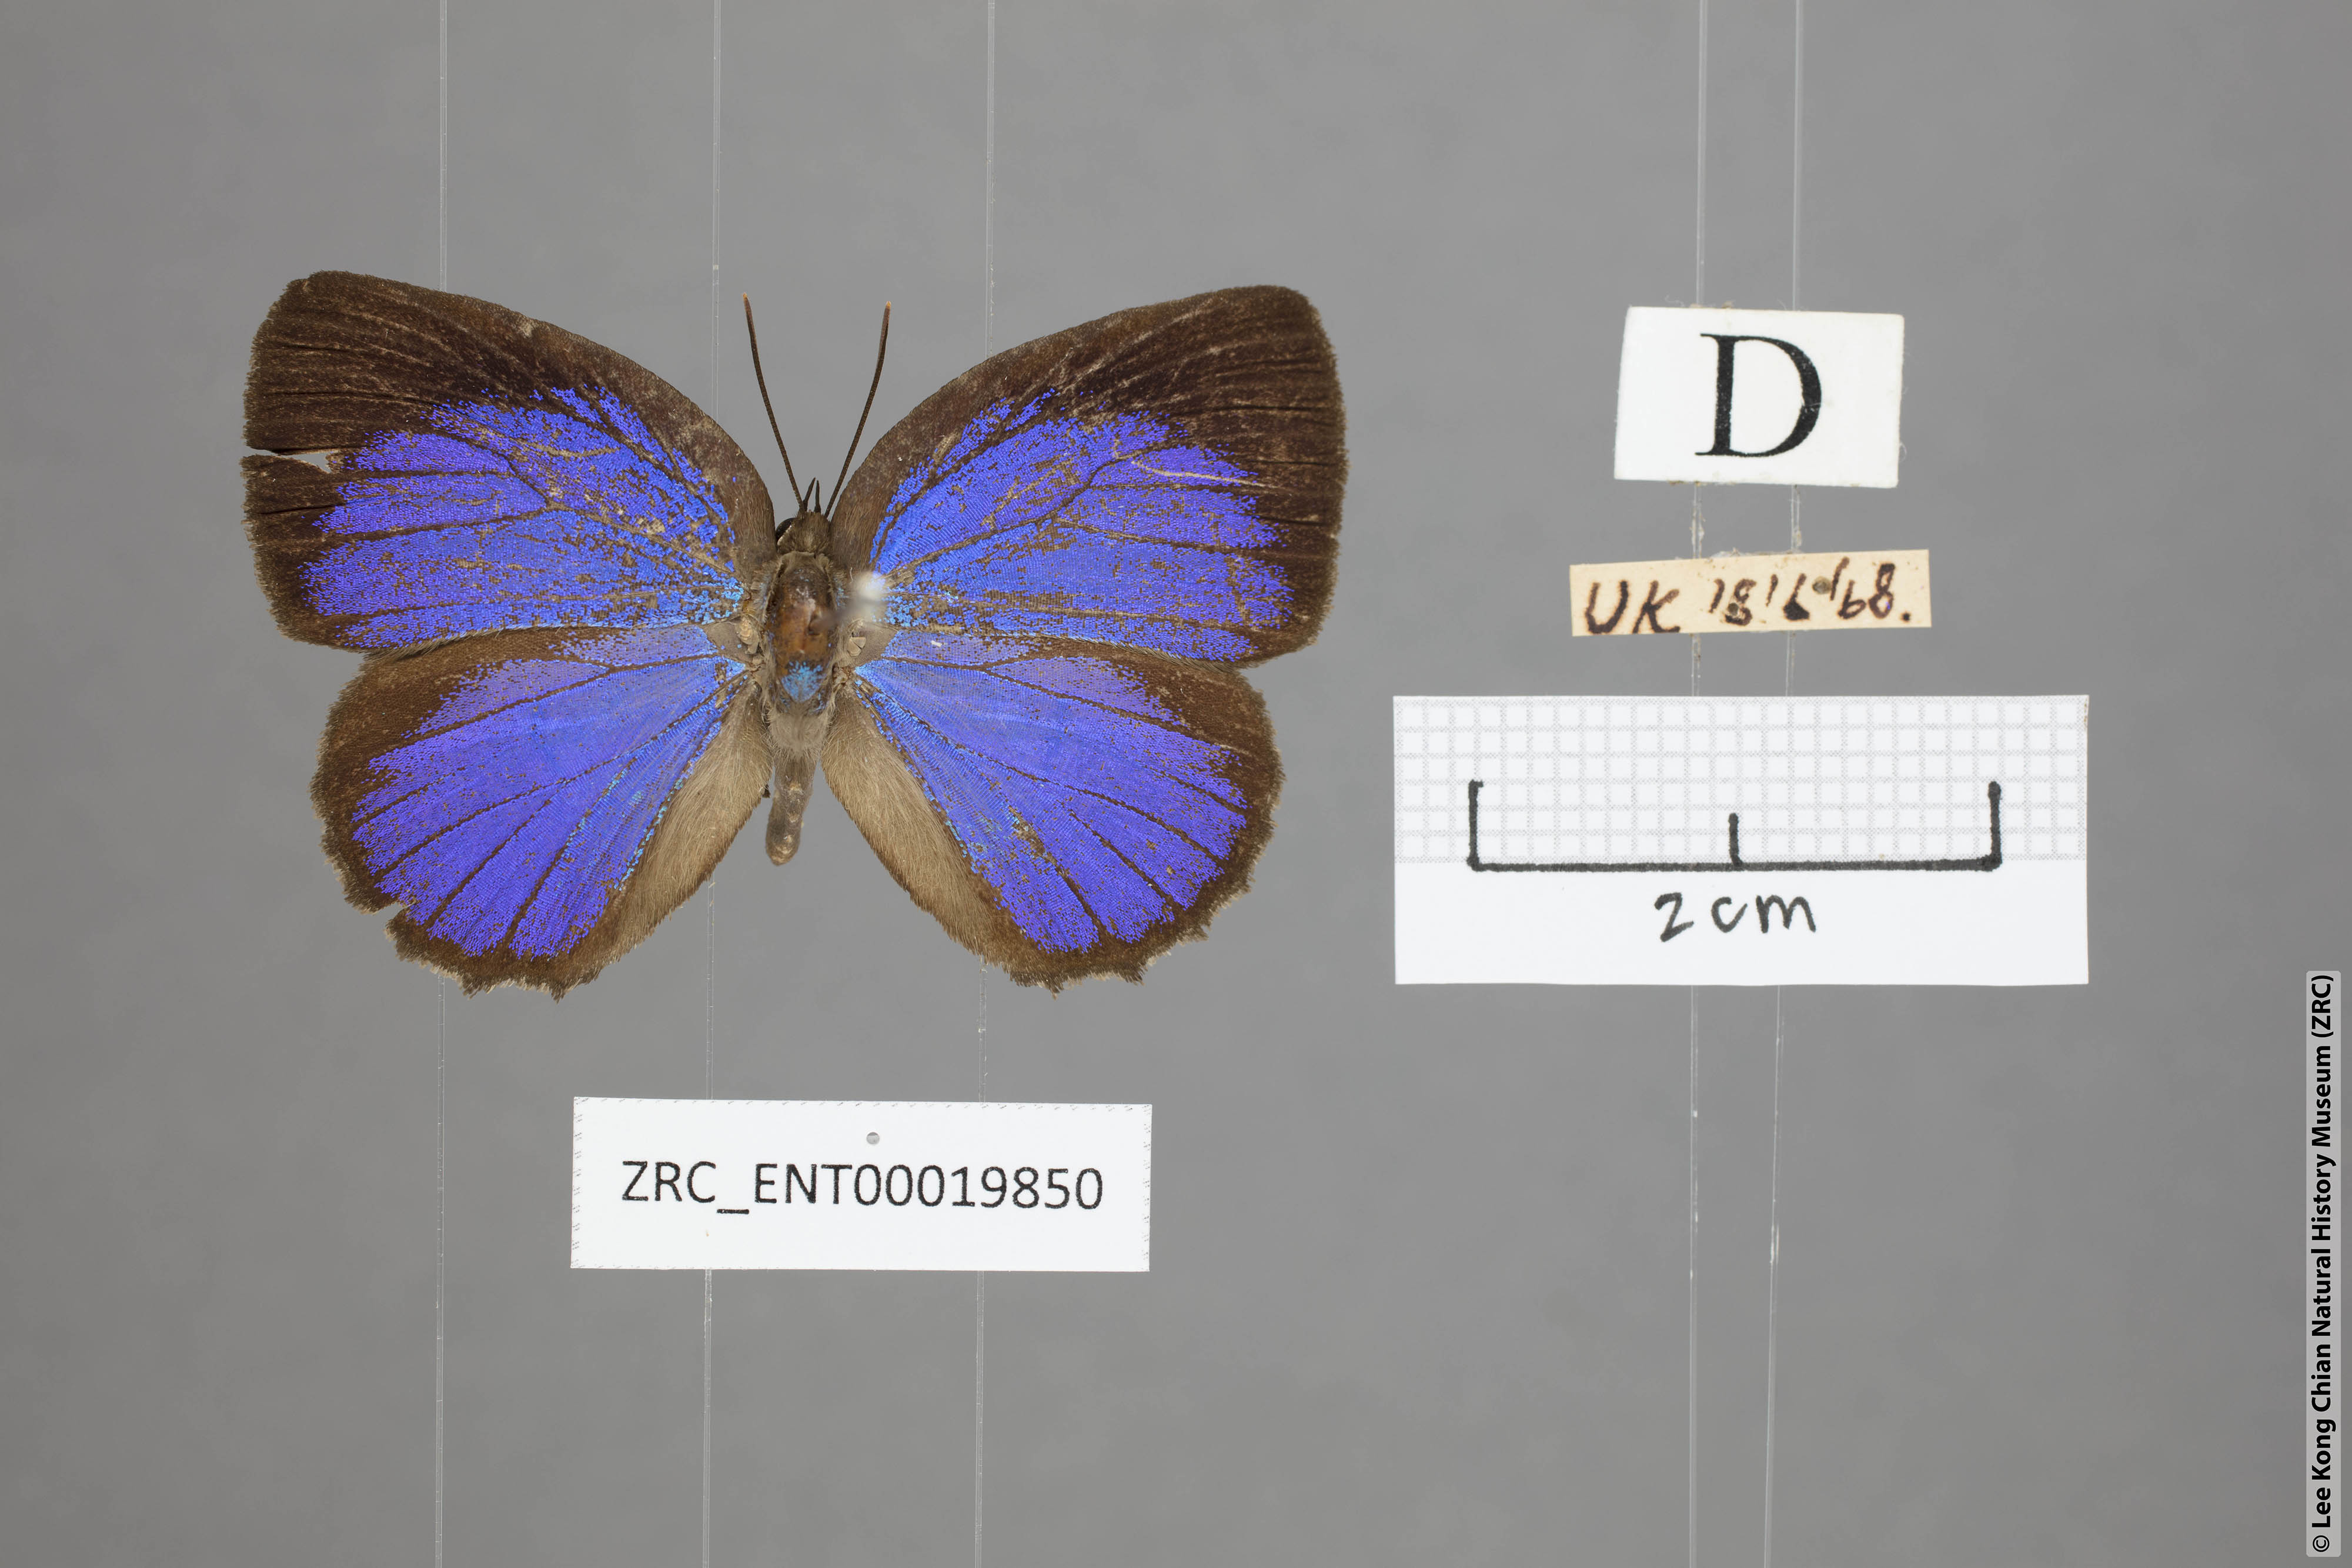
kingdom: Animalia
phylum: Arthropoda
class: Insecta
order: Lepidoptera
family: Lycaenidae
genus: Arhopala
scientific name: Arhopala similis
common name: Druce's oakblue
